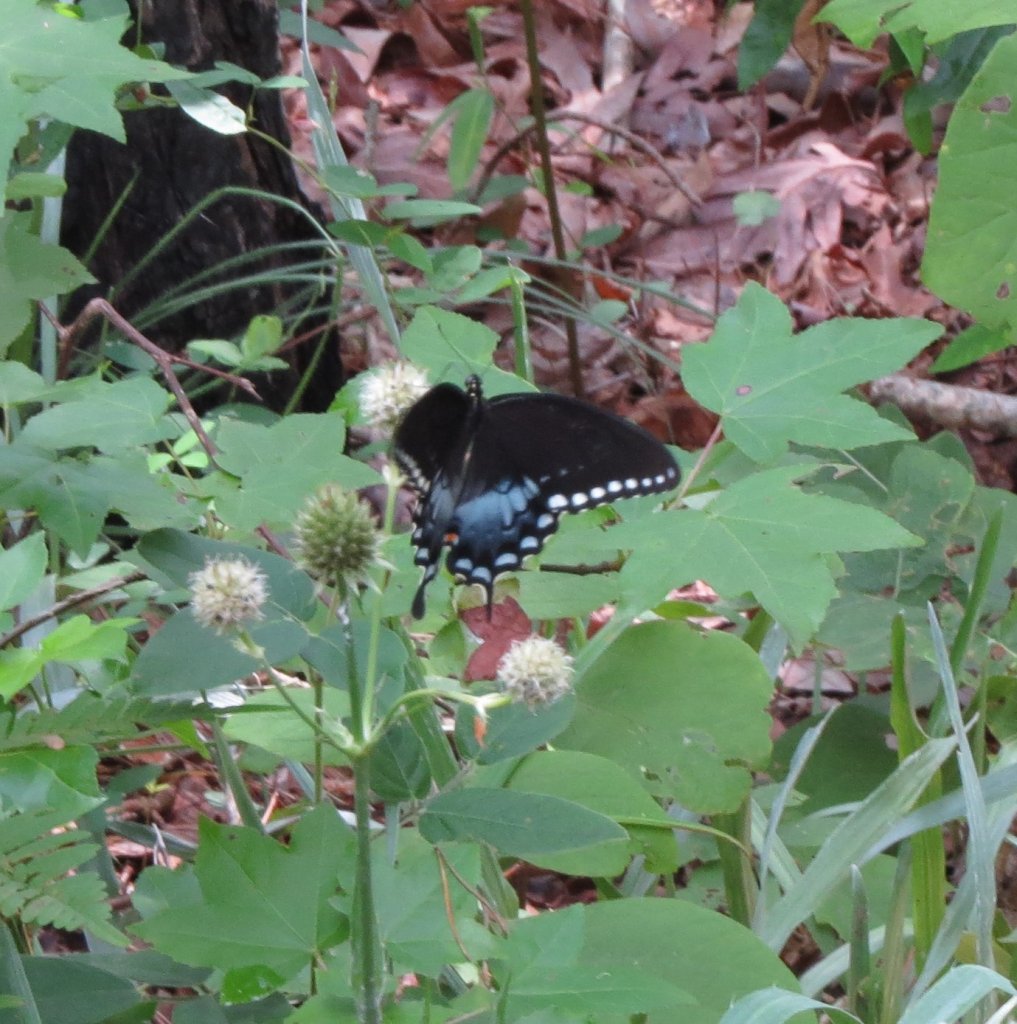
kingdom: Animalia
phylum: Arthropoda
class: Insecta
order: Lepidoptera
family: Papilionidae
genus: Pterourus
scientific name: Pterourus glaucus
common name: Eastern Tiger Swallowtail
